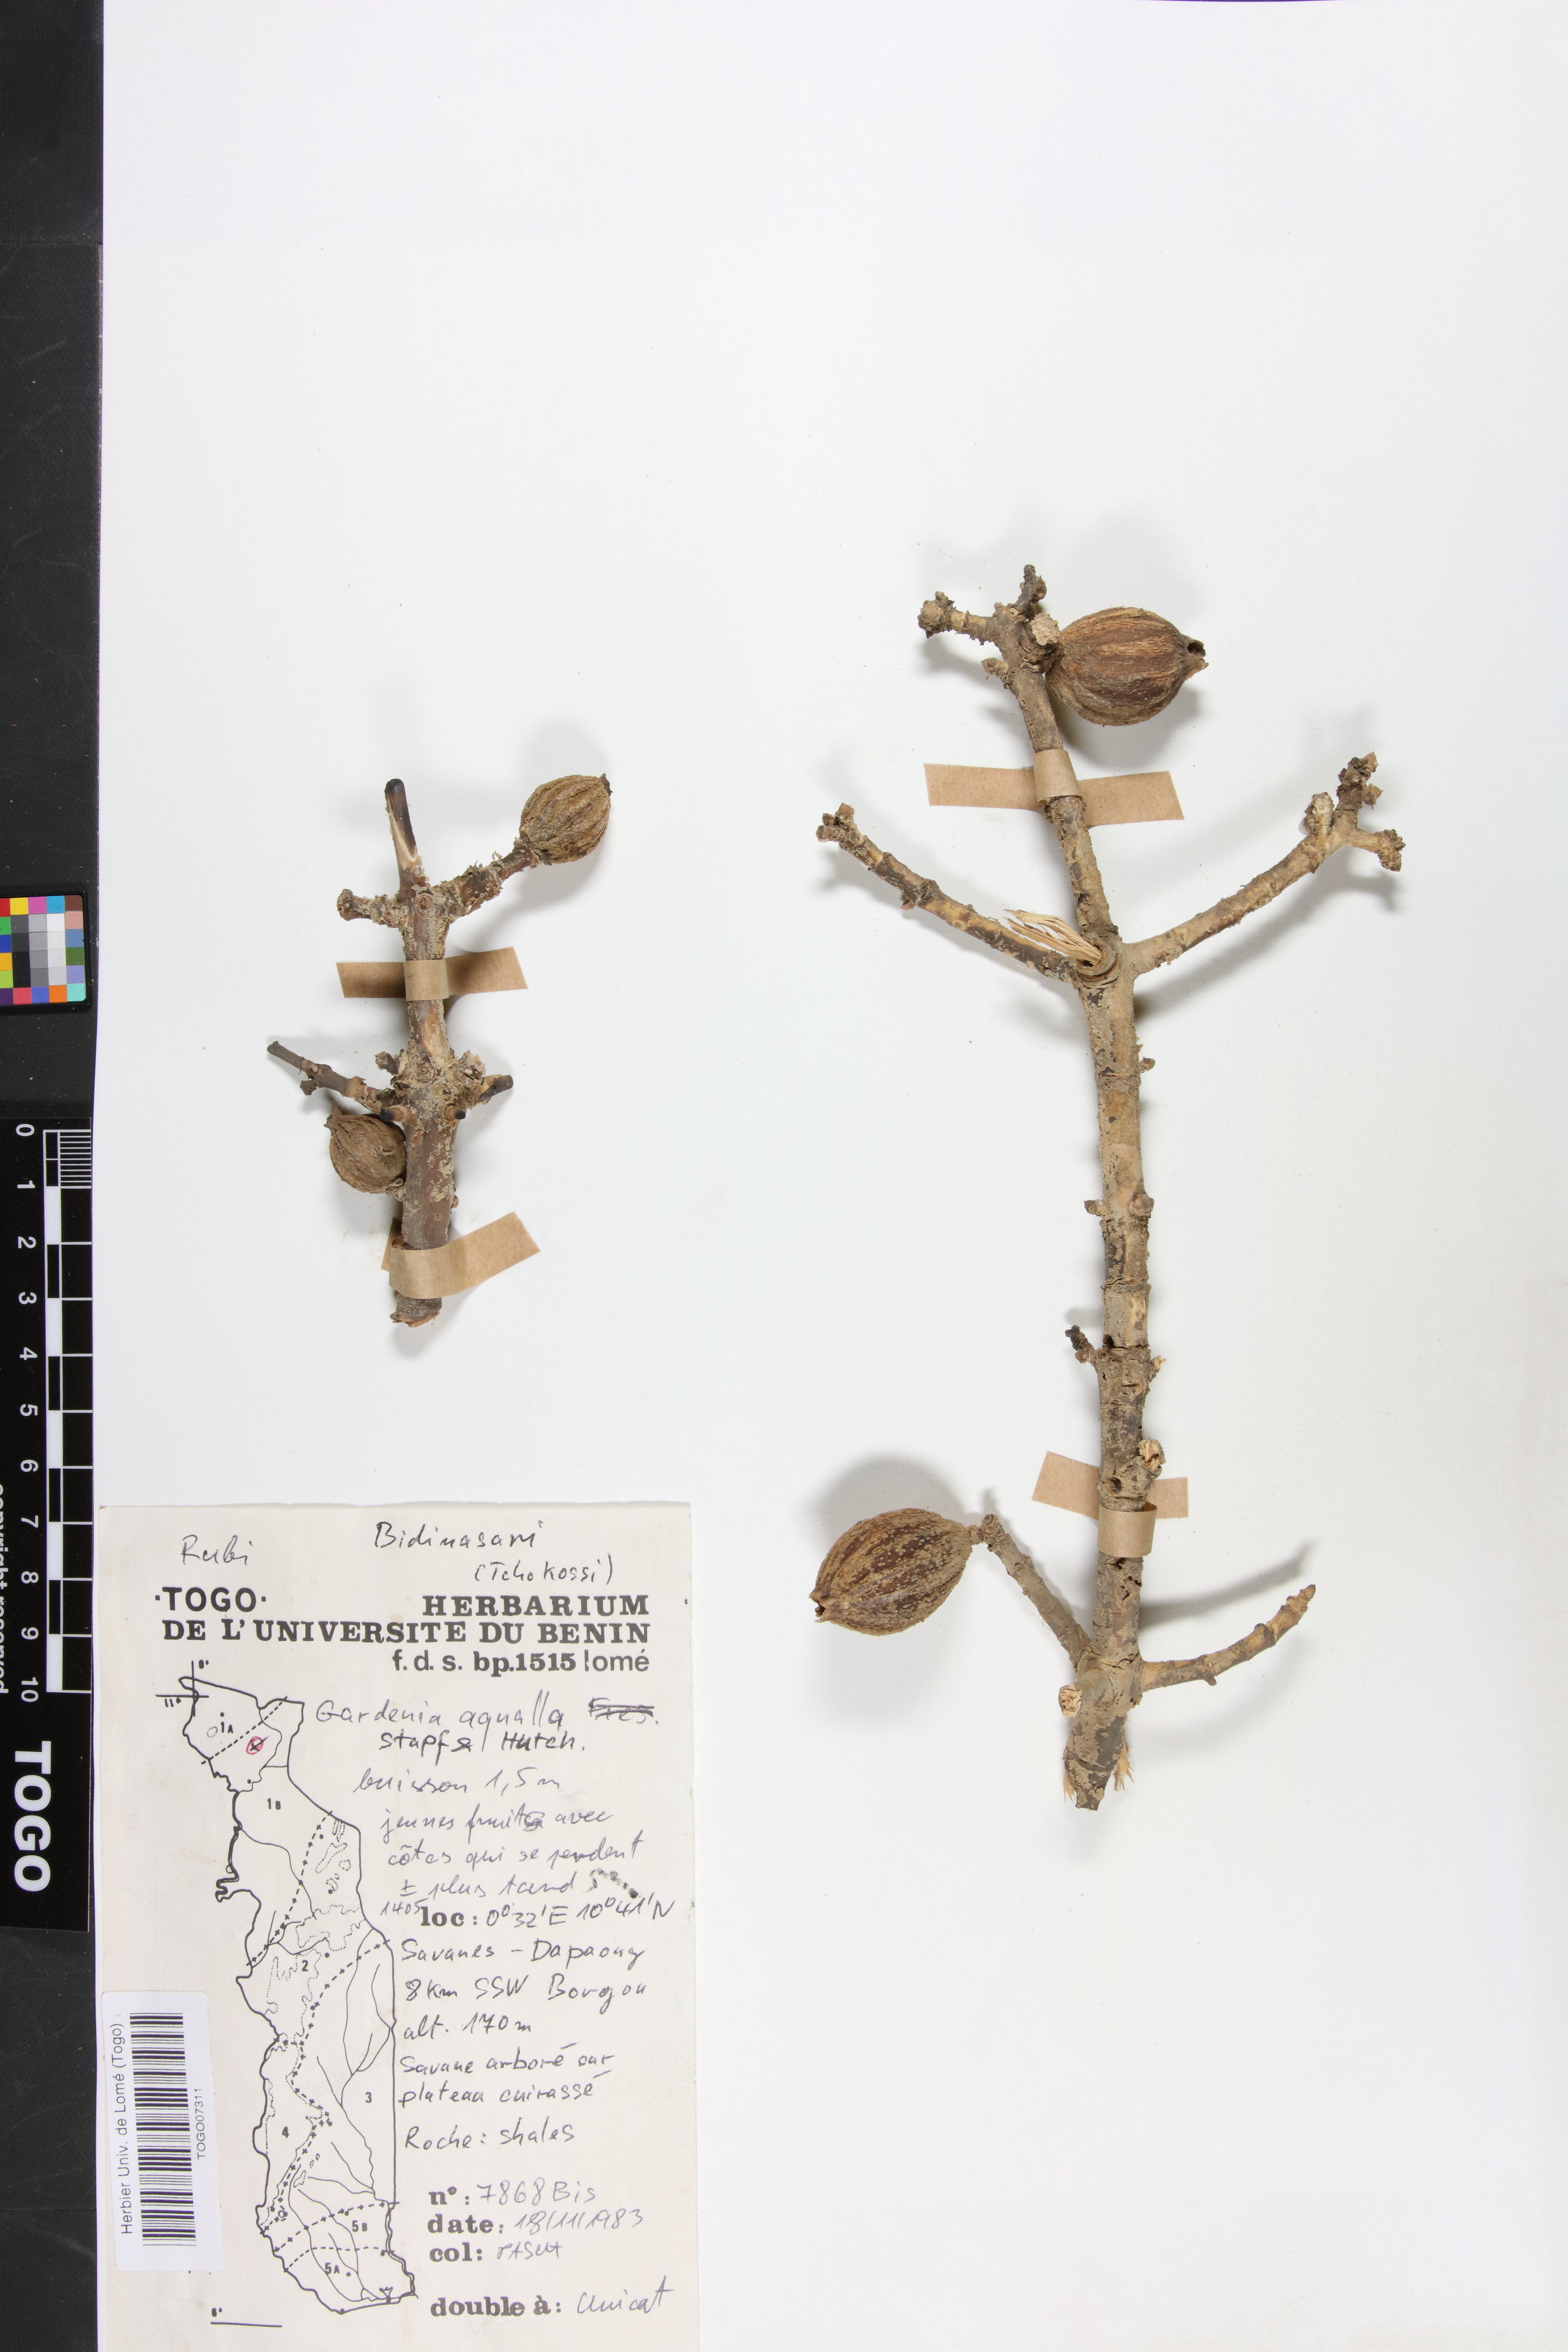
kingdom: Plantae
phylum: Tracheophyta
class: Magnoliopsida
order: Gentianales
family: Rubiaceae
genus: Gardenia
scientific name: Gardenia aqualla
